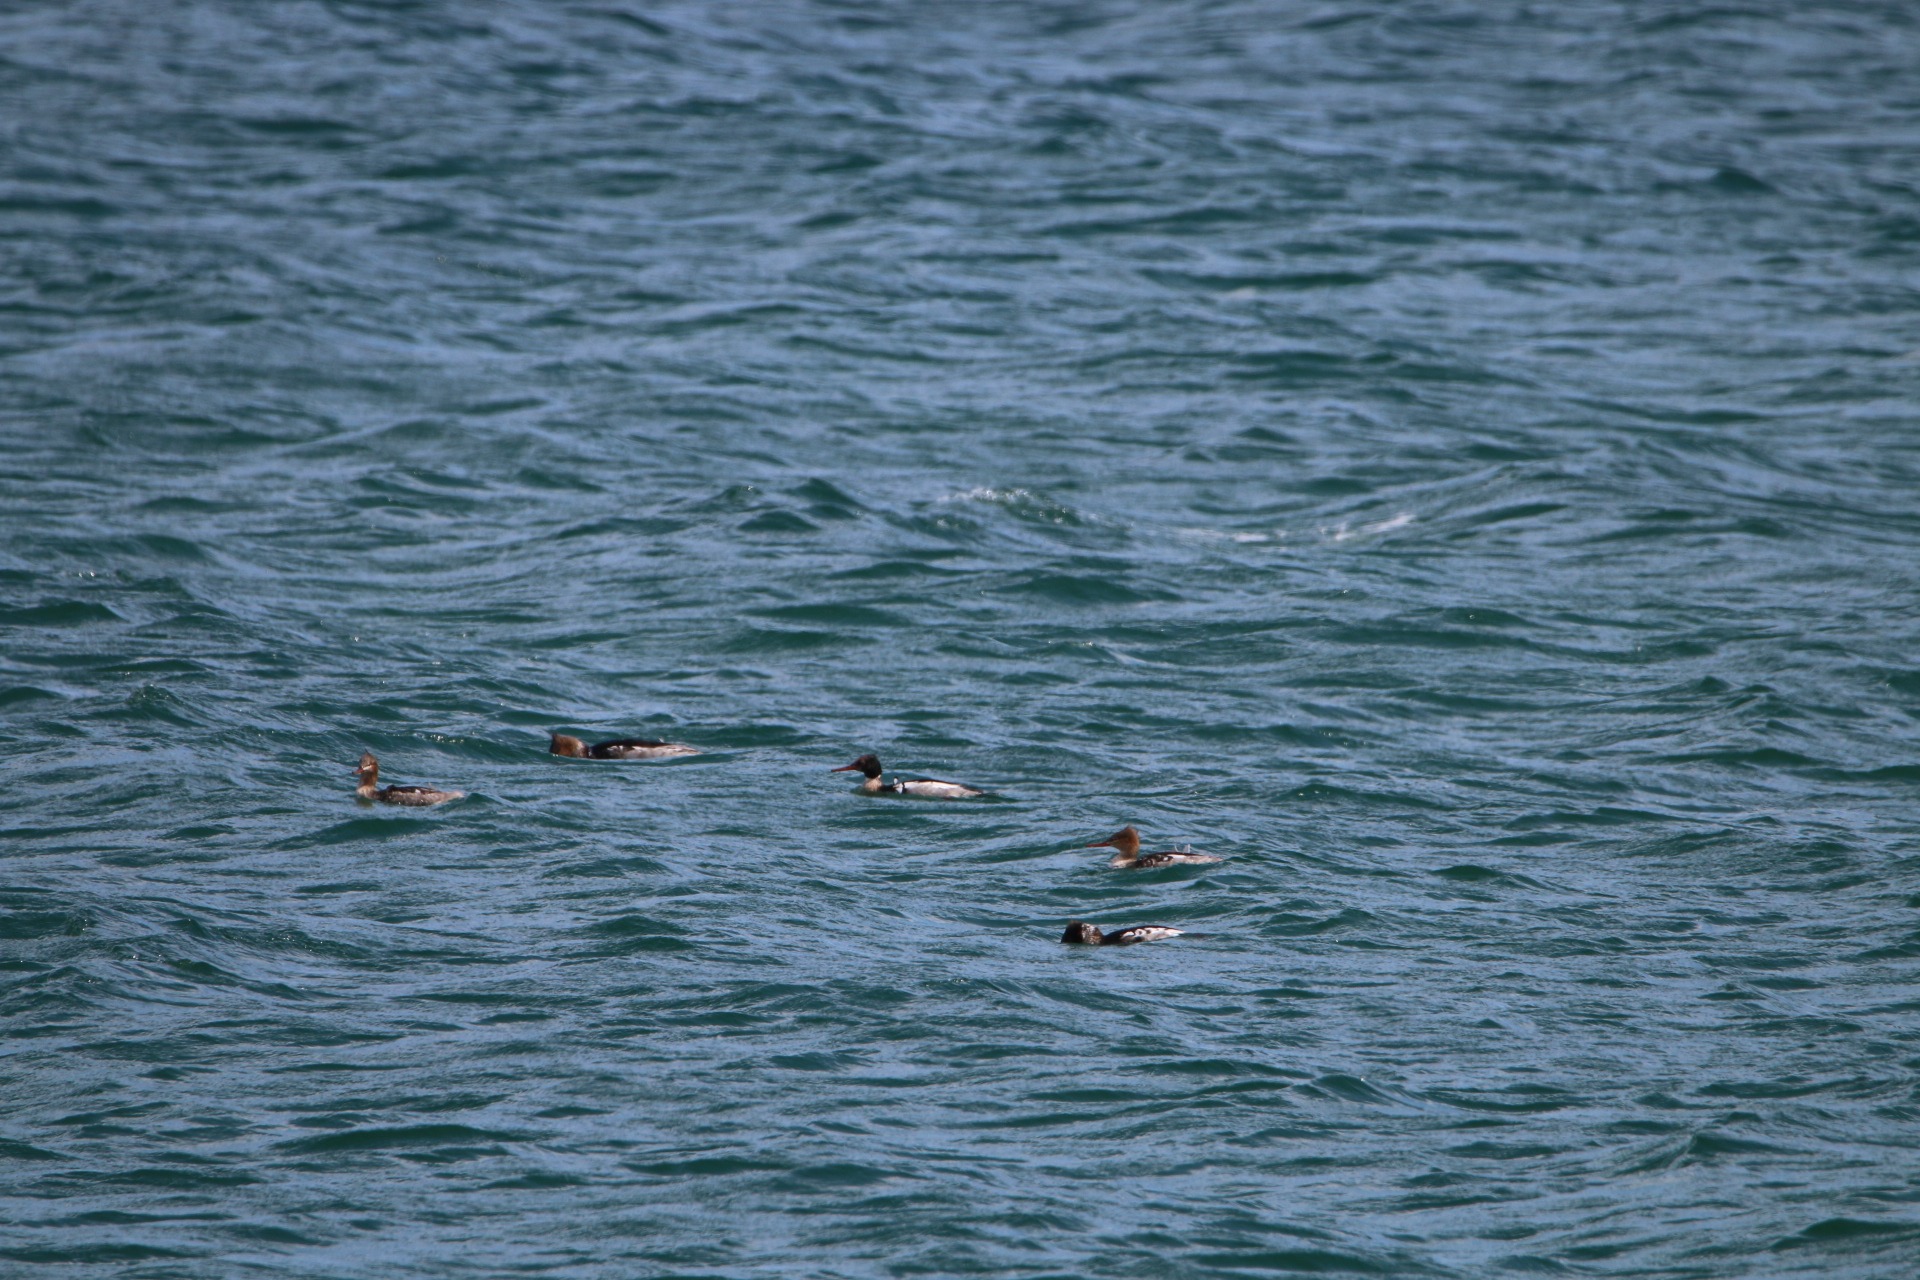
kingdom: Animalia
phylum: Chordata
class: Aves
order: Anseriformes
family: Anatidae
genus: Mergus
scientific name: Mergus serrator
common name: Toppet skallesluger
